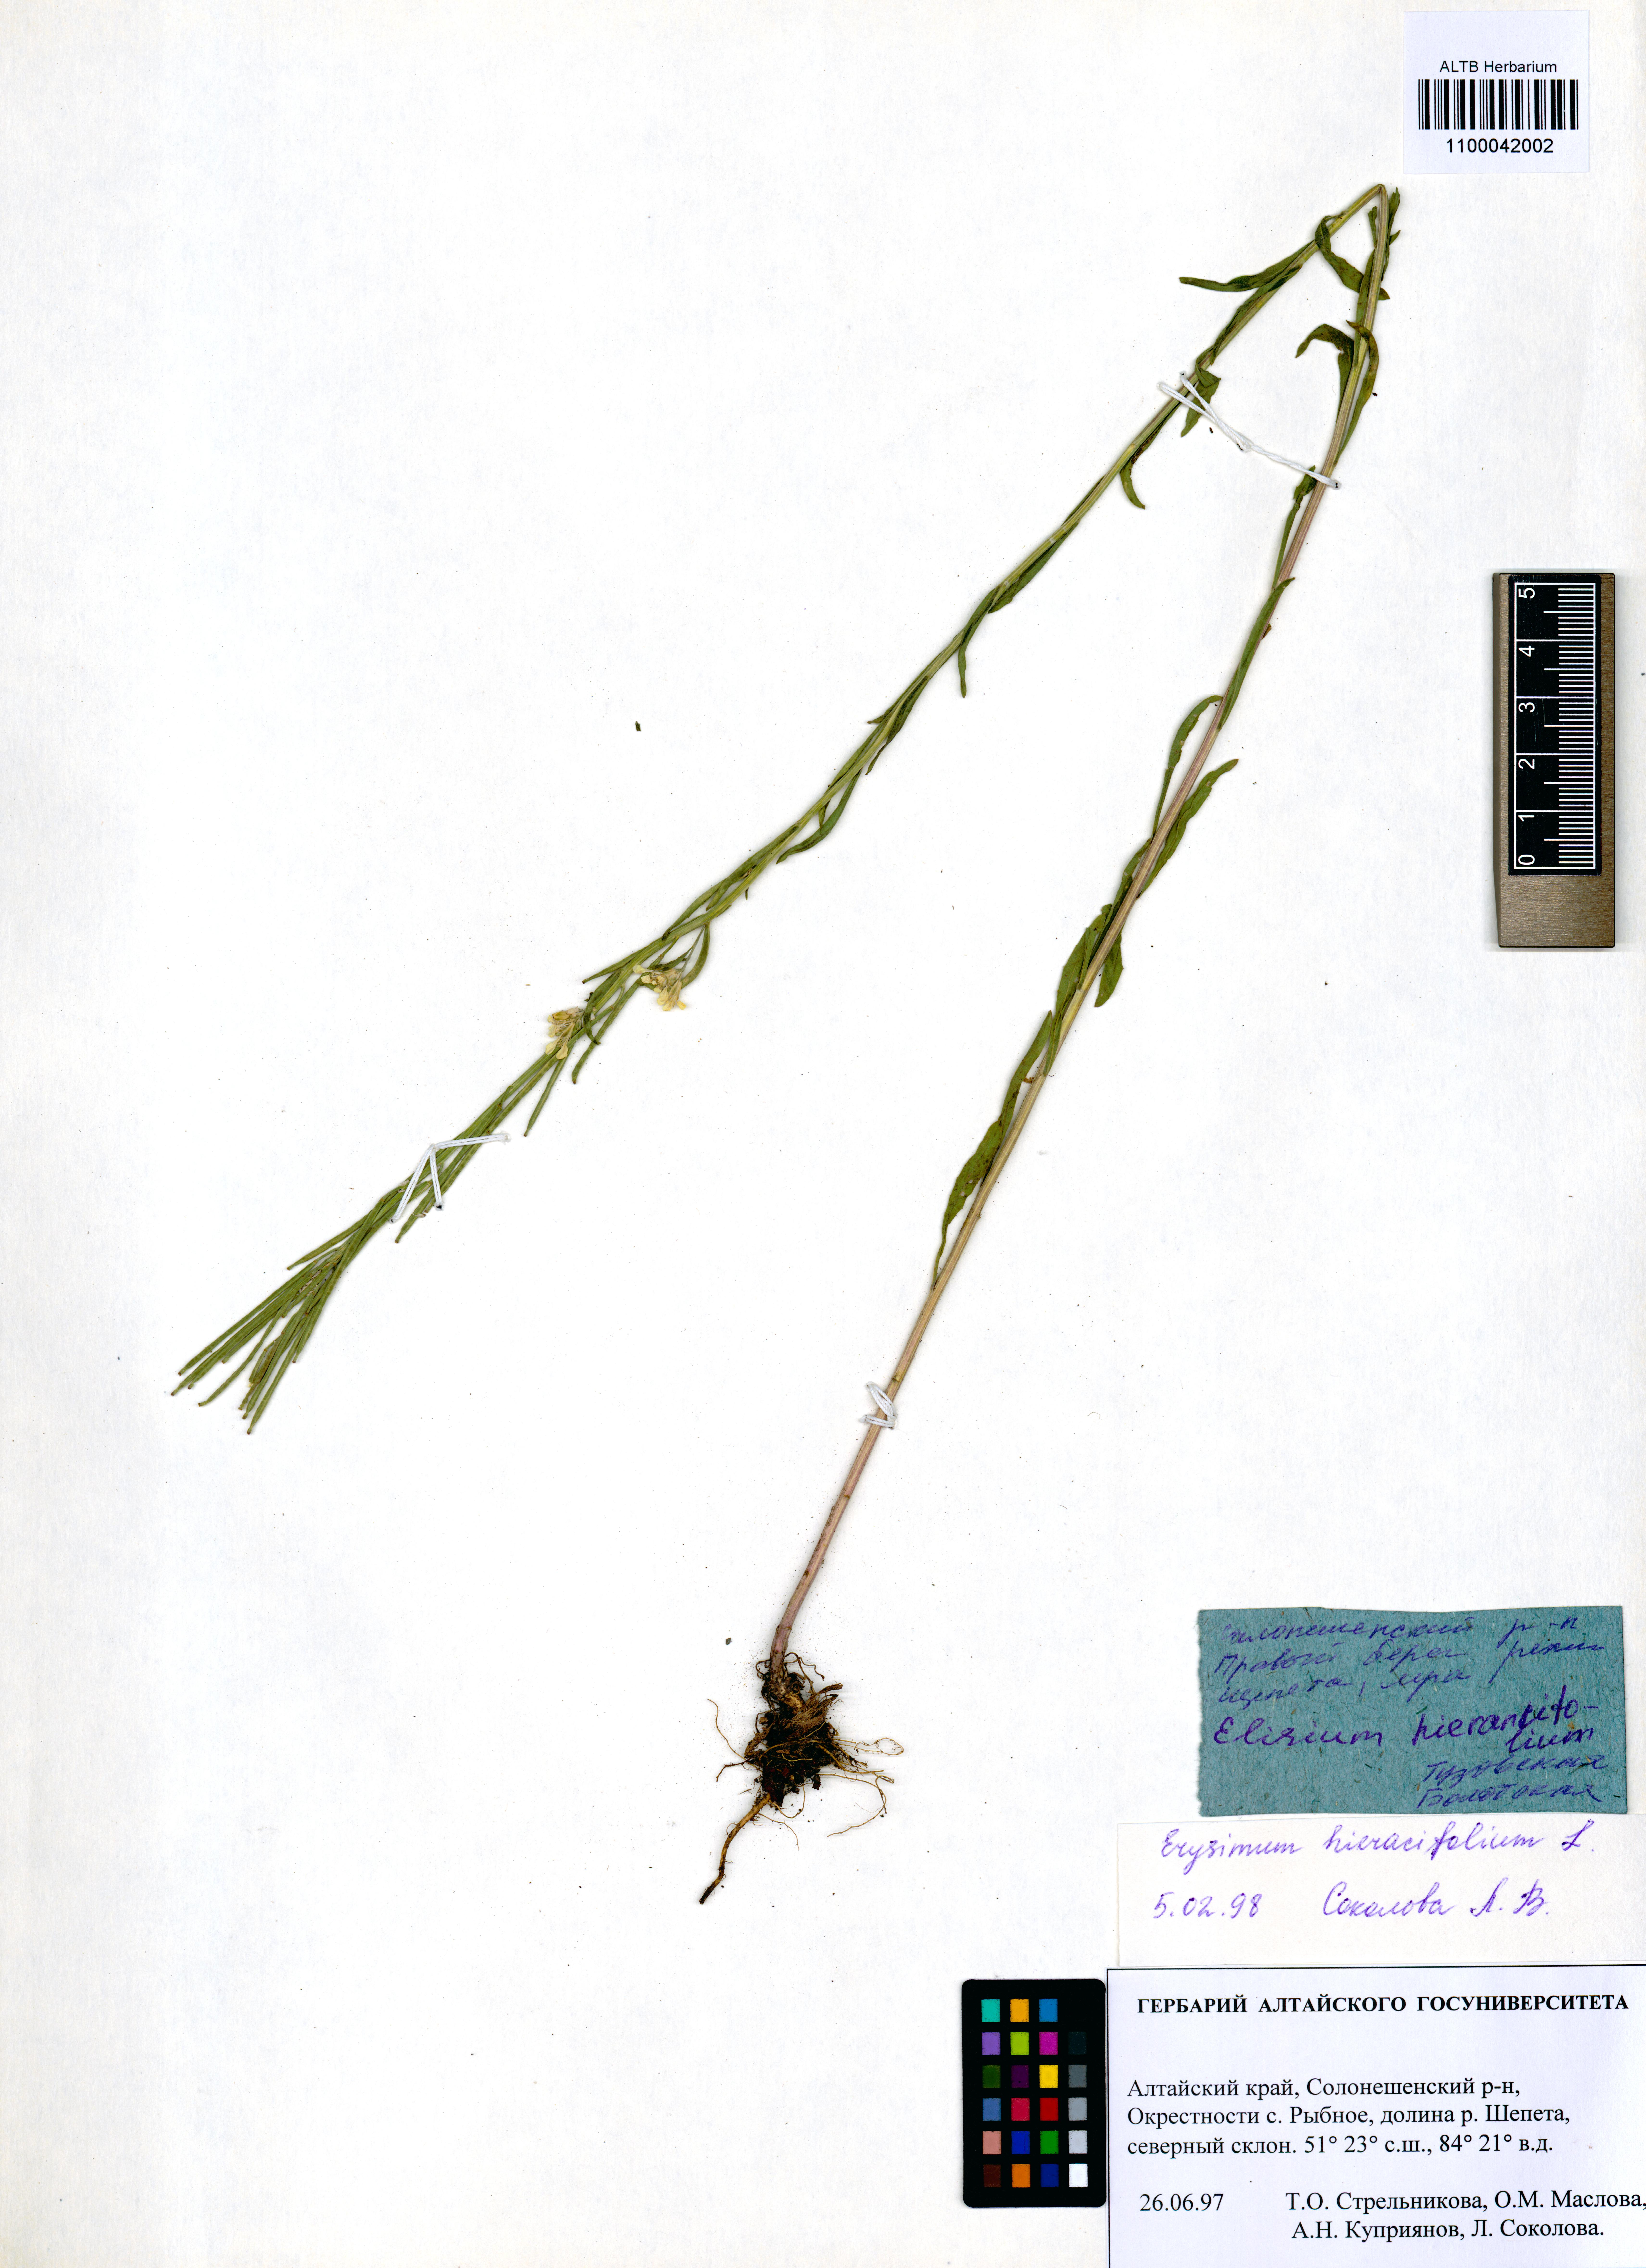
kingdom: Plantae
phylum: Tracheophyta
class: Magnoliopsida
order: Brassicales
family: Brassicaceae
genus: Erysimum
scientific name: Erysimum hieraciifolium
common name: European wallflower
